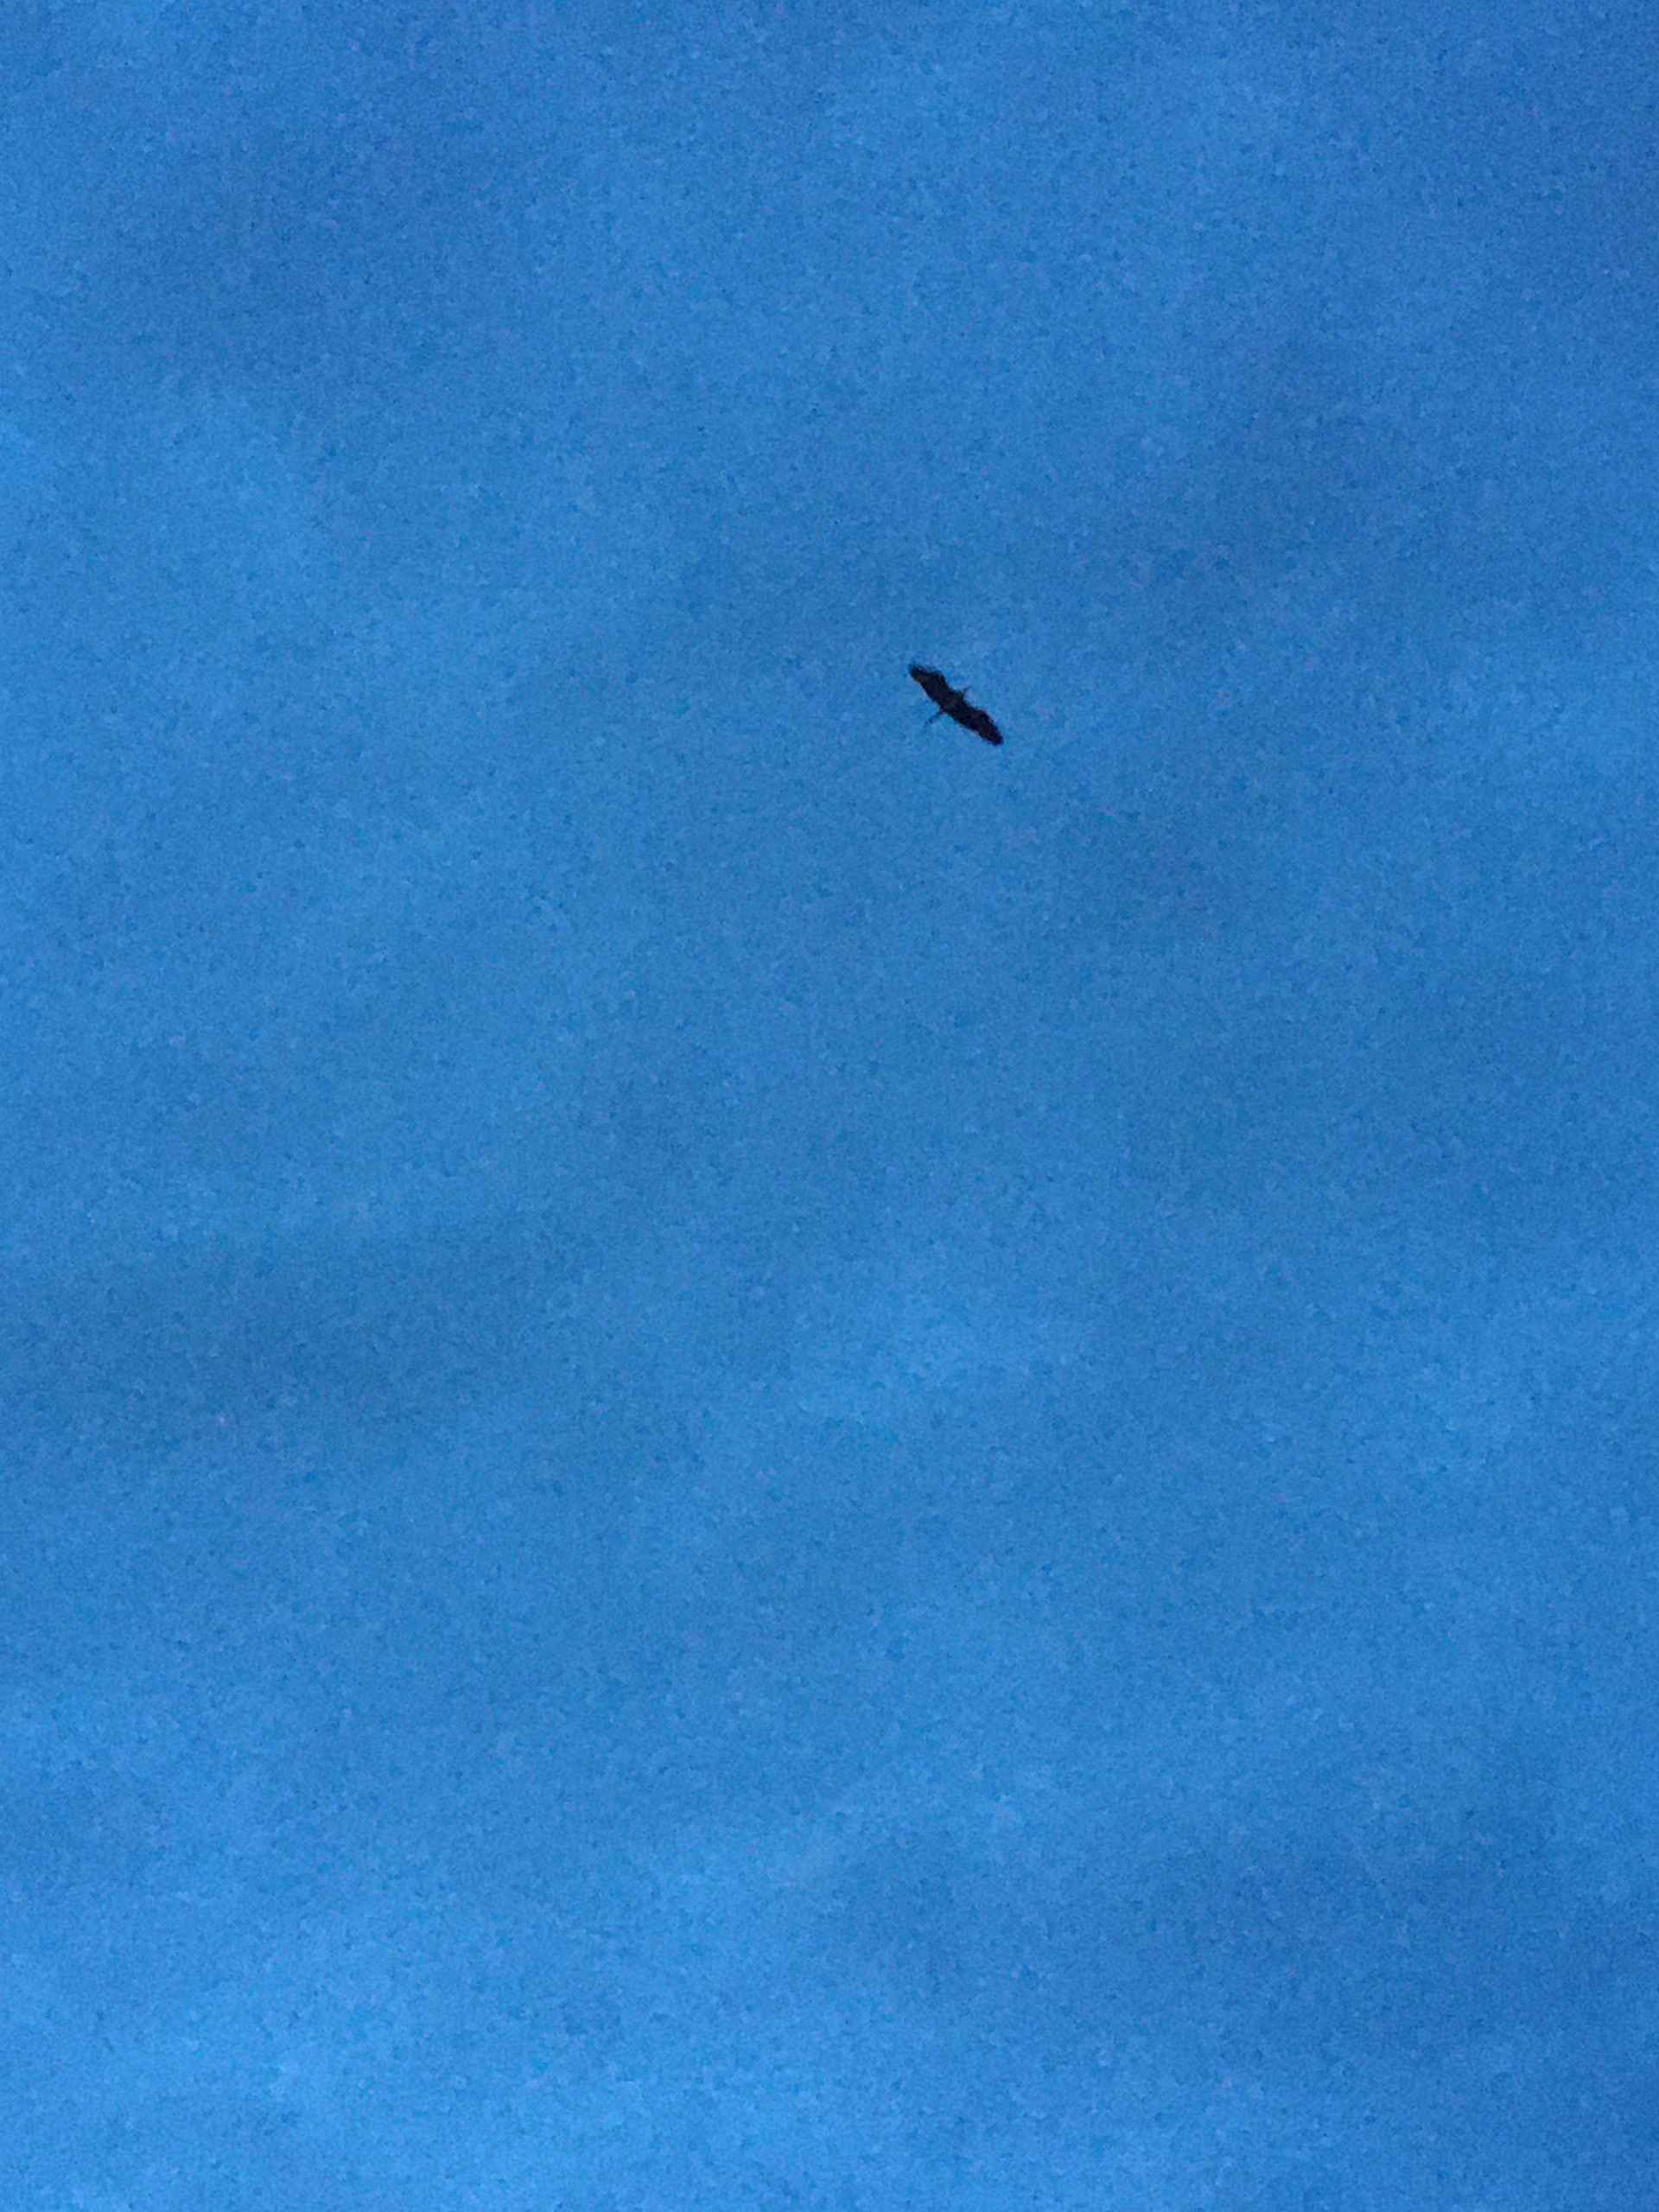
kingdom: Animalia
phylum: Chordata
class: Aves
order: Pelecaniformes
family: Ardeidae
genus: Ardea
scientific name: Ardea cinerea
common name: Fiskehejre
